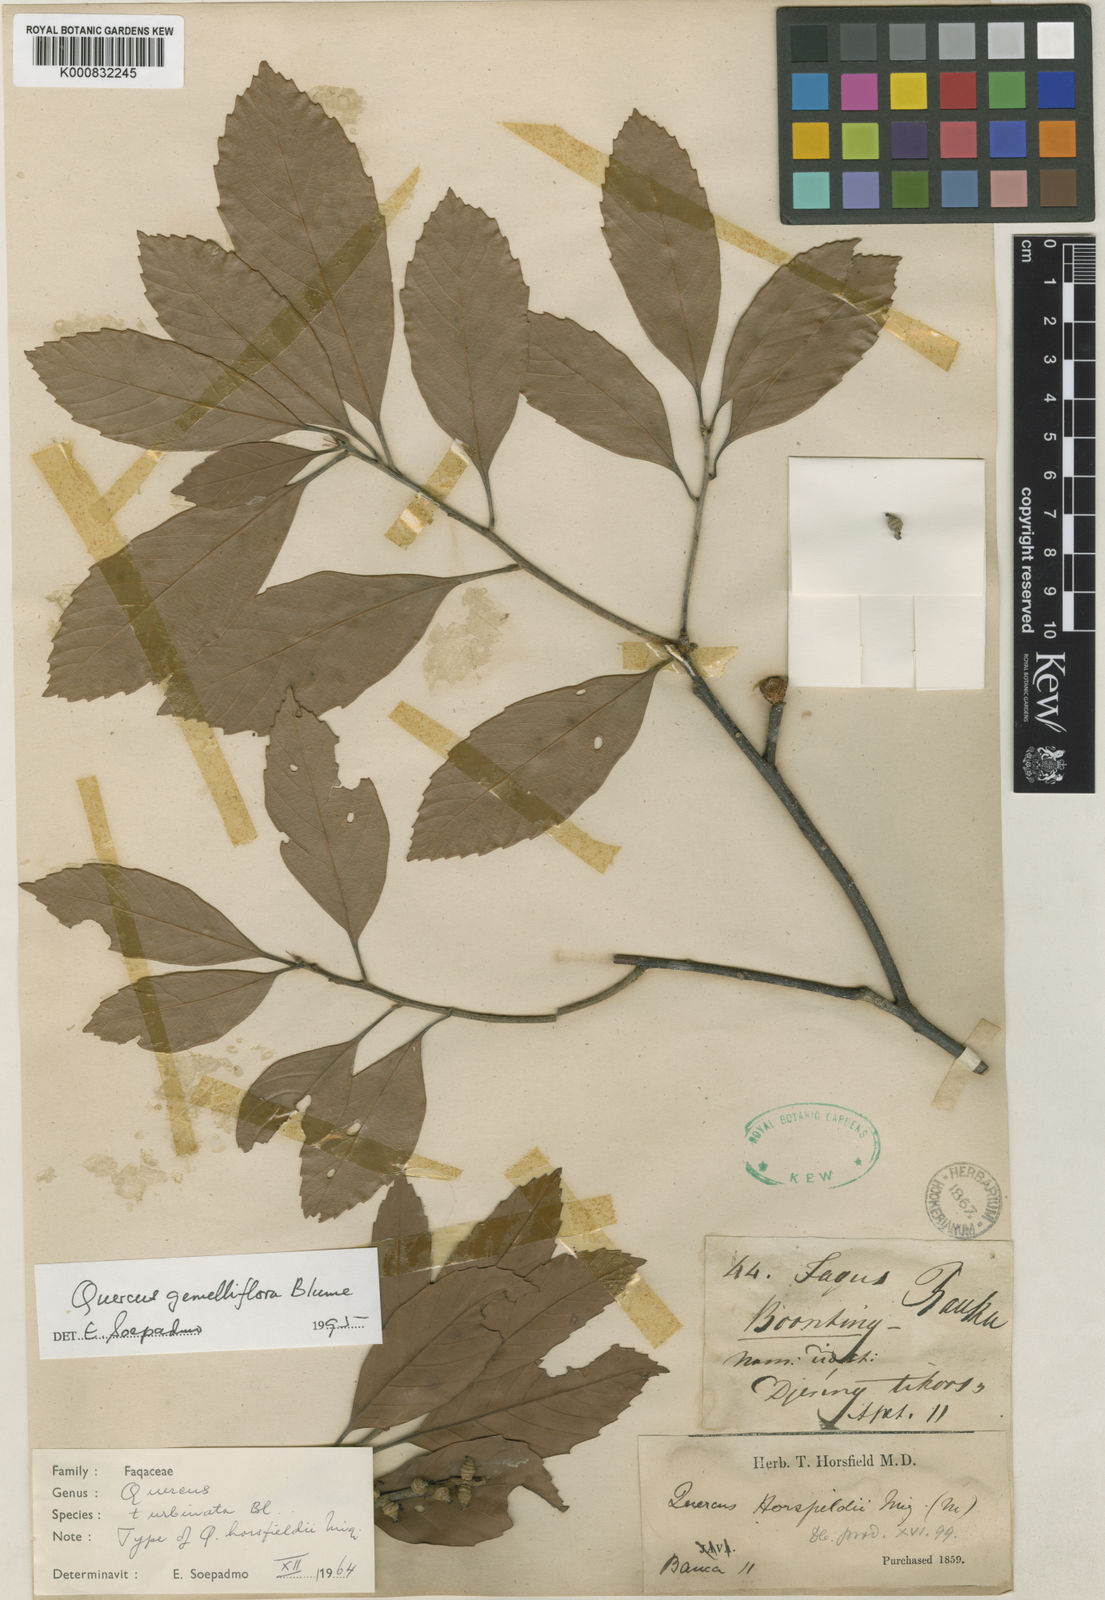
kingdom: Plantae
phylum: Tracheophyta
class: Magnoliopsida
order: Fagales
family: Fagaceae
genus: Quercus
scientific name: Quercus gemelliflora
